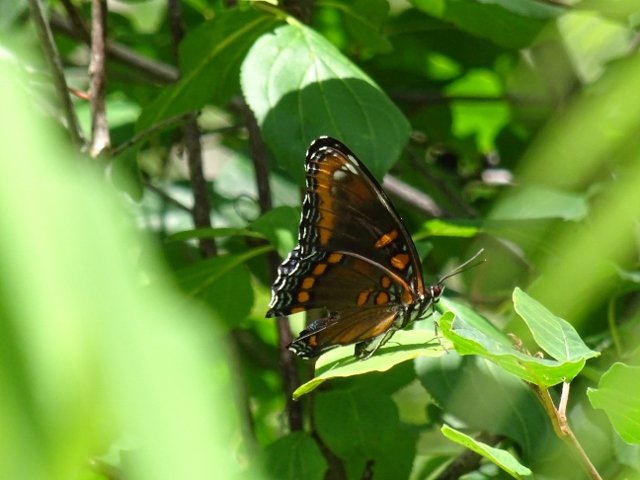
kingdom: Animalia
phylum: Arthropoda
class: Insecta
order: Lepidoptera
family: Nymphalidae
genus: Limenitis
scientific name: Limenitis astyanax
